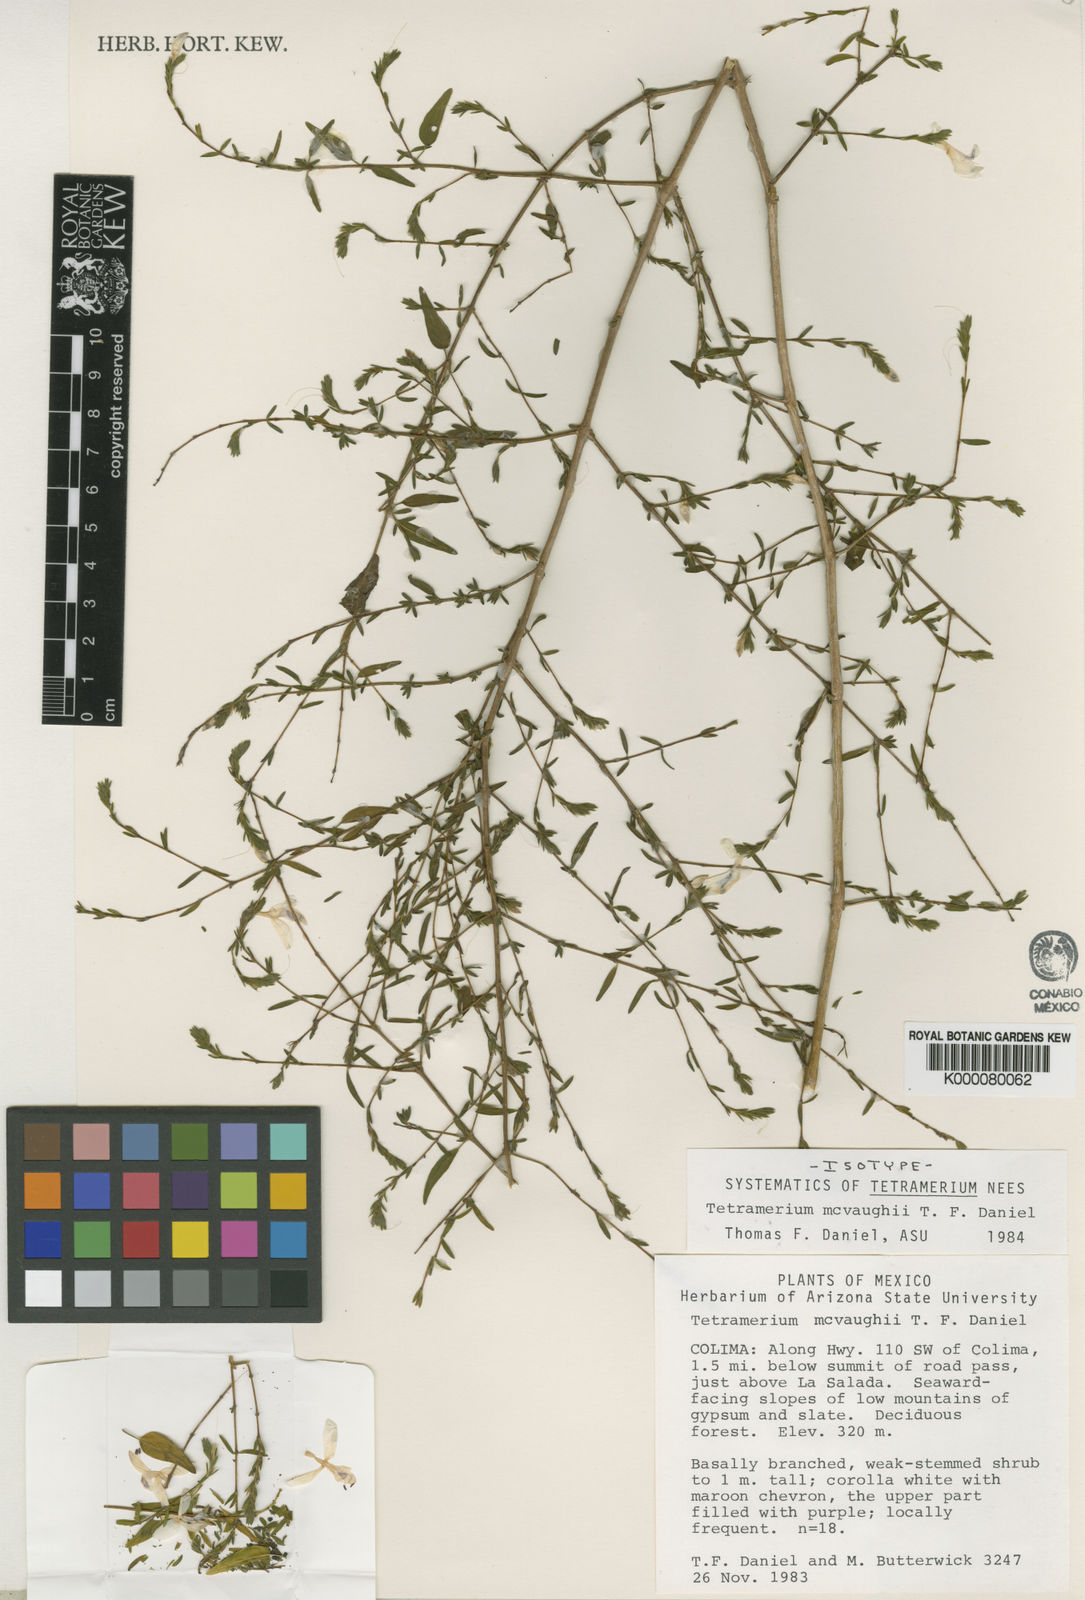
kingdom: Plantae
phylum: Tracheophyta
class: Magnoliopsida
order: Lamiales
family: Acanthaceae
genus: Tetramerium
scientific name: Tetramerium mcvaughii
